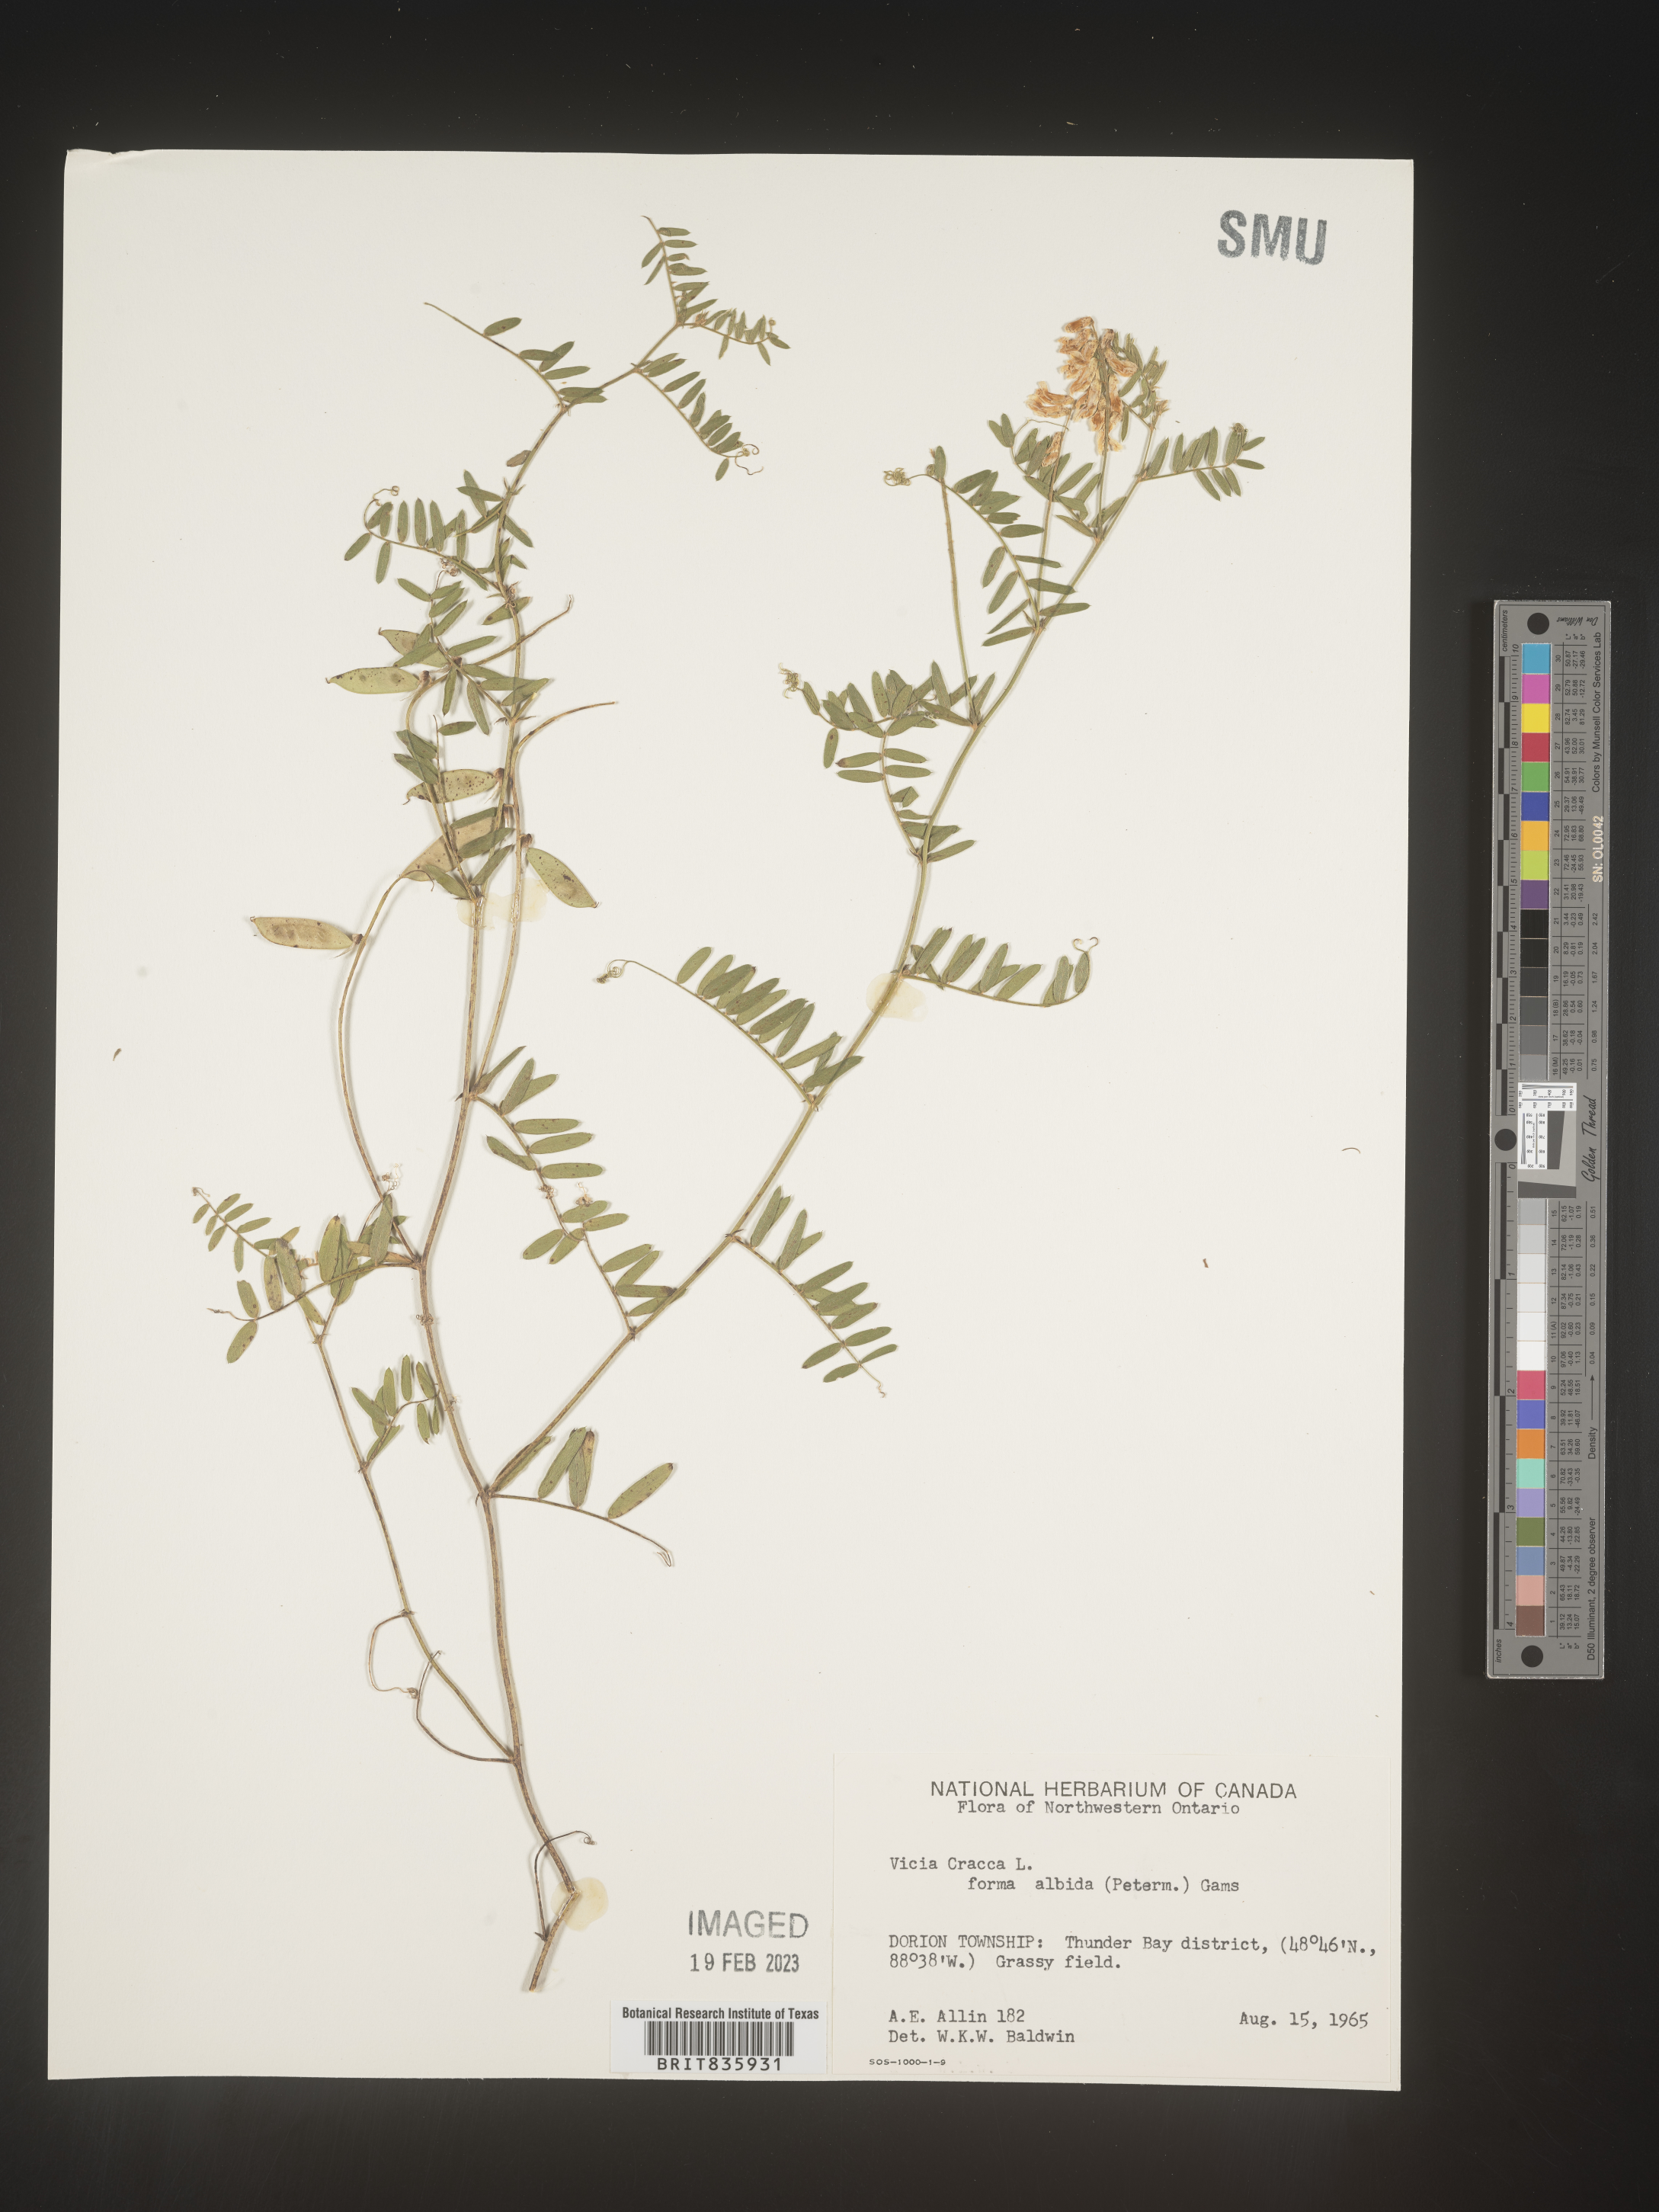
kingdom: Plantae
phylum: Tracheophyta
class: Magnoliopsida
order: Fabales
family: Fabaceae
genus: Vicia
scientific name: Vicia cracca
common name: Bird vetch
